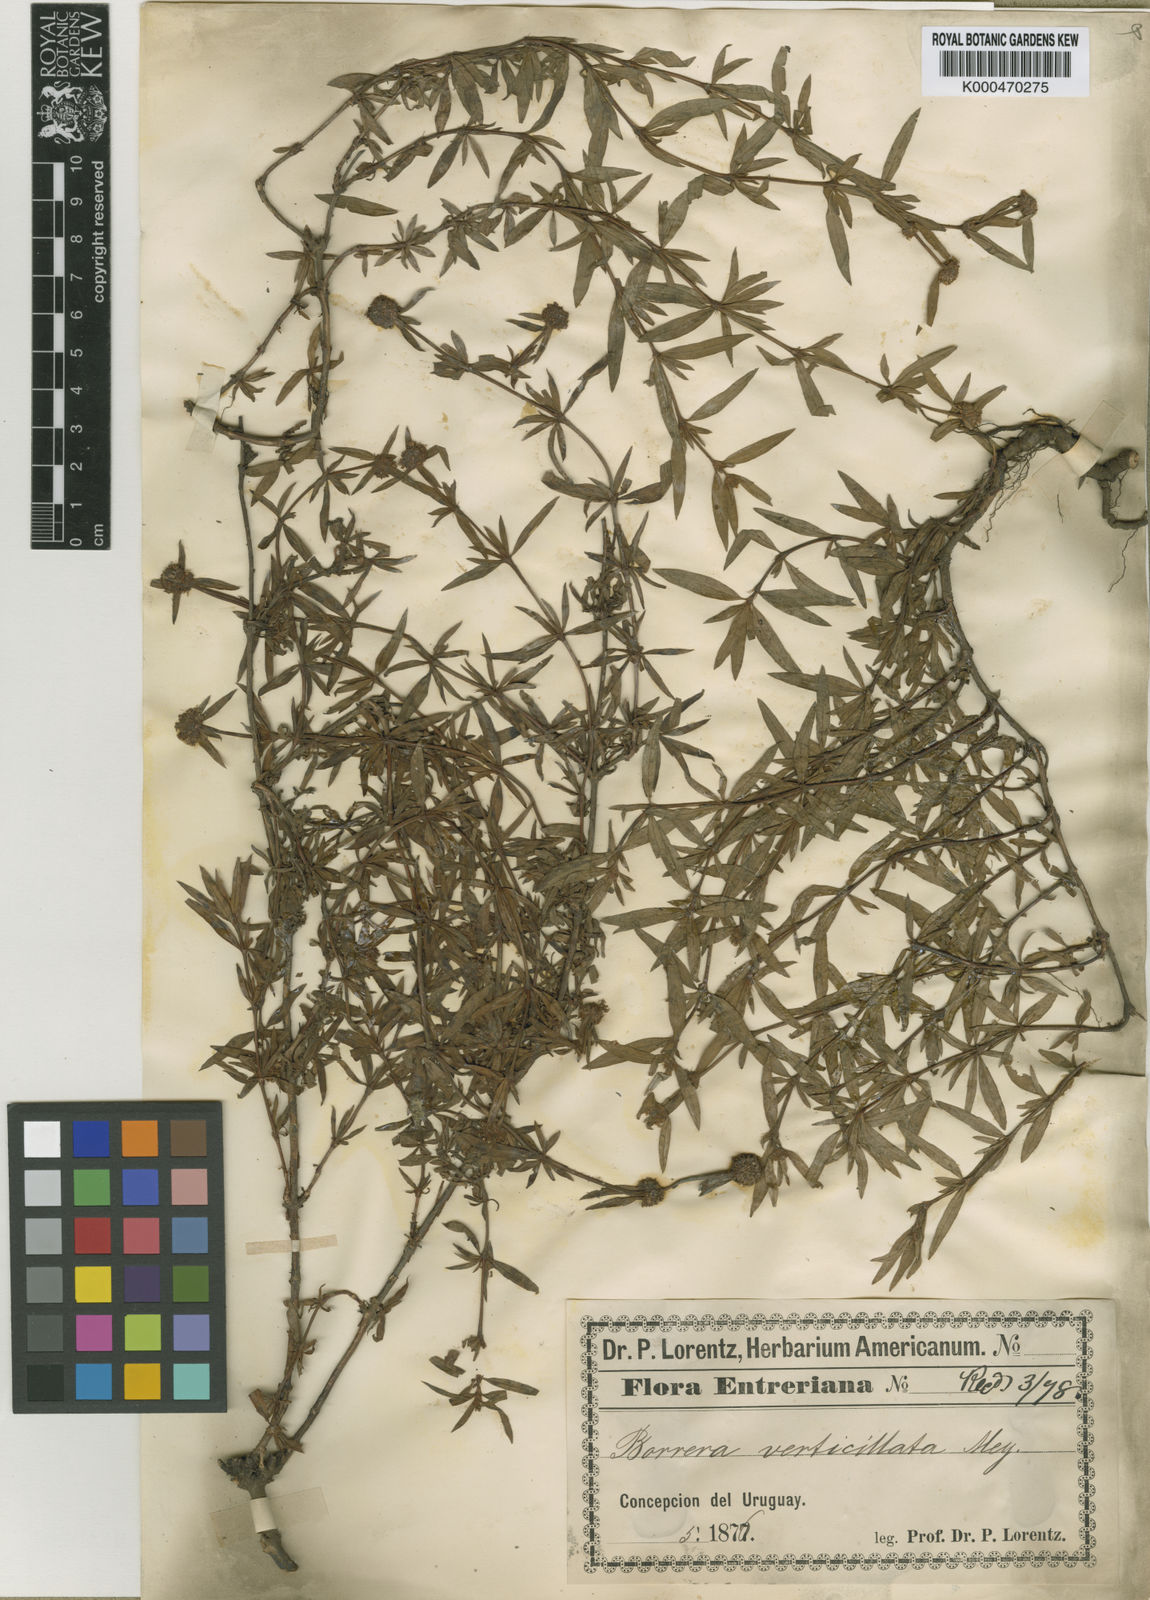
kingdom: Plantae
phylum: Tracheophyta
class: Magnoliopsida
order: Gentianales
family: Rubiaceae
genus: Spermacoce
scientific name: Spermacoce verticillata
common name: Shrubby false buttonweed
